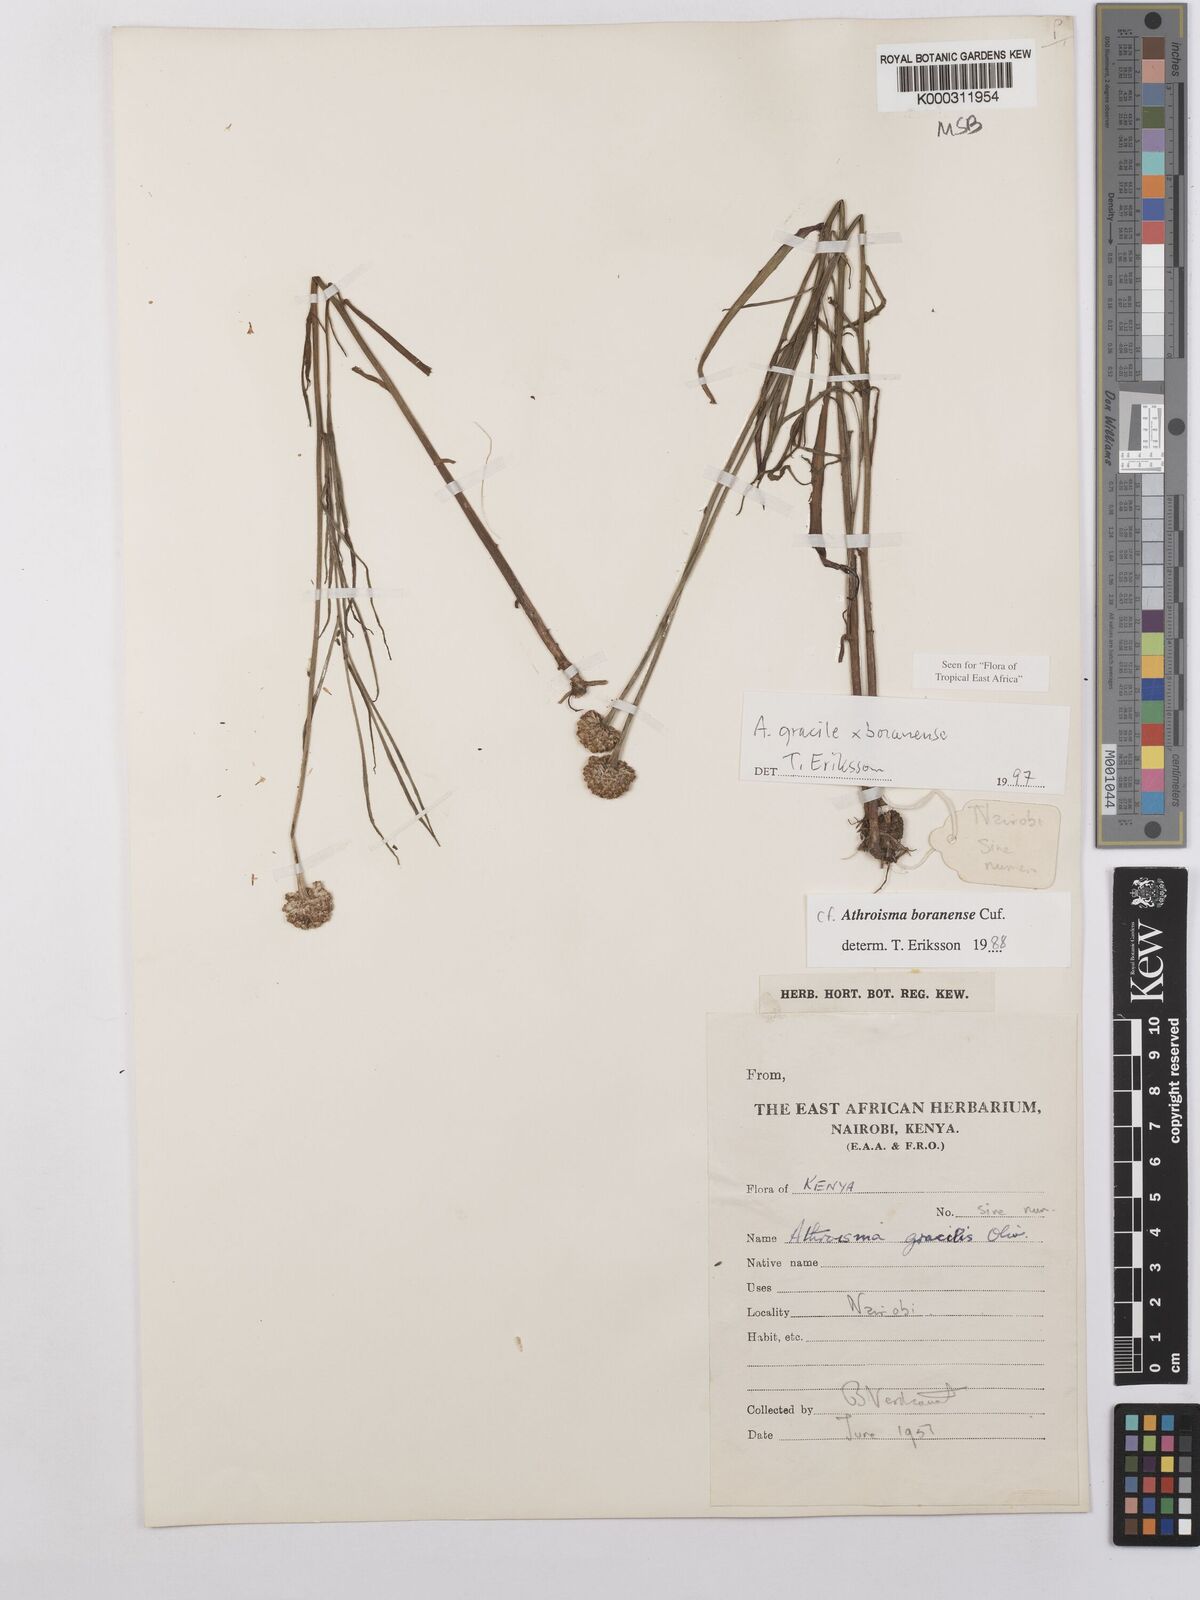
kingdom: Plantae
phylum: Tracheophyta
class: Magnoliopsida
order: Asterales
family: Asteraceae
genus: Athroisma
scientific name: Athroisma
